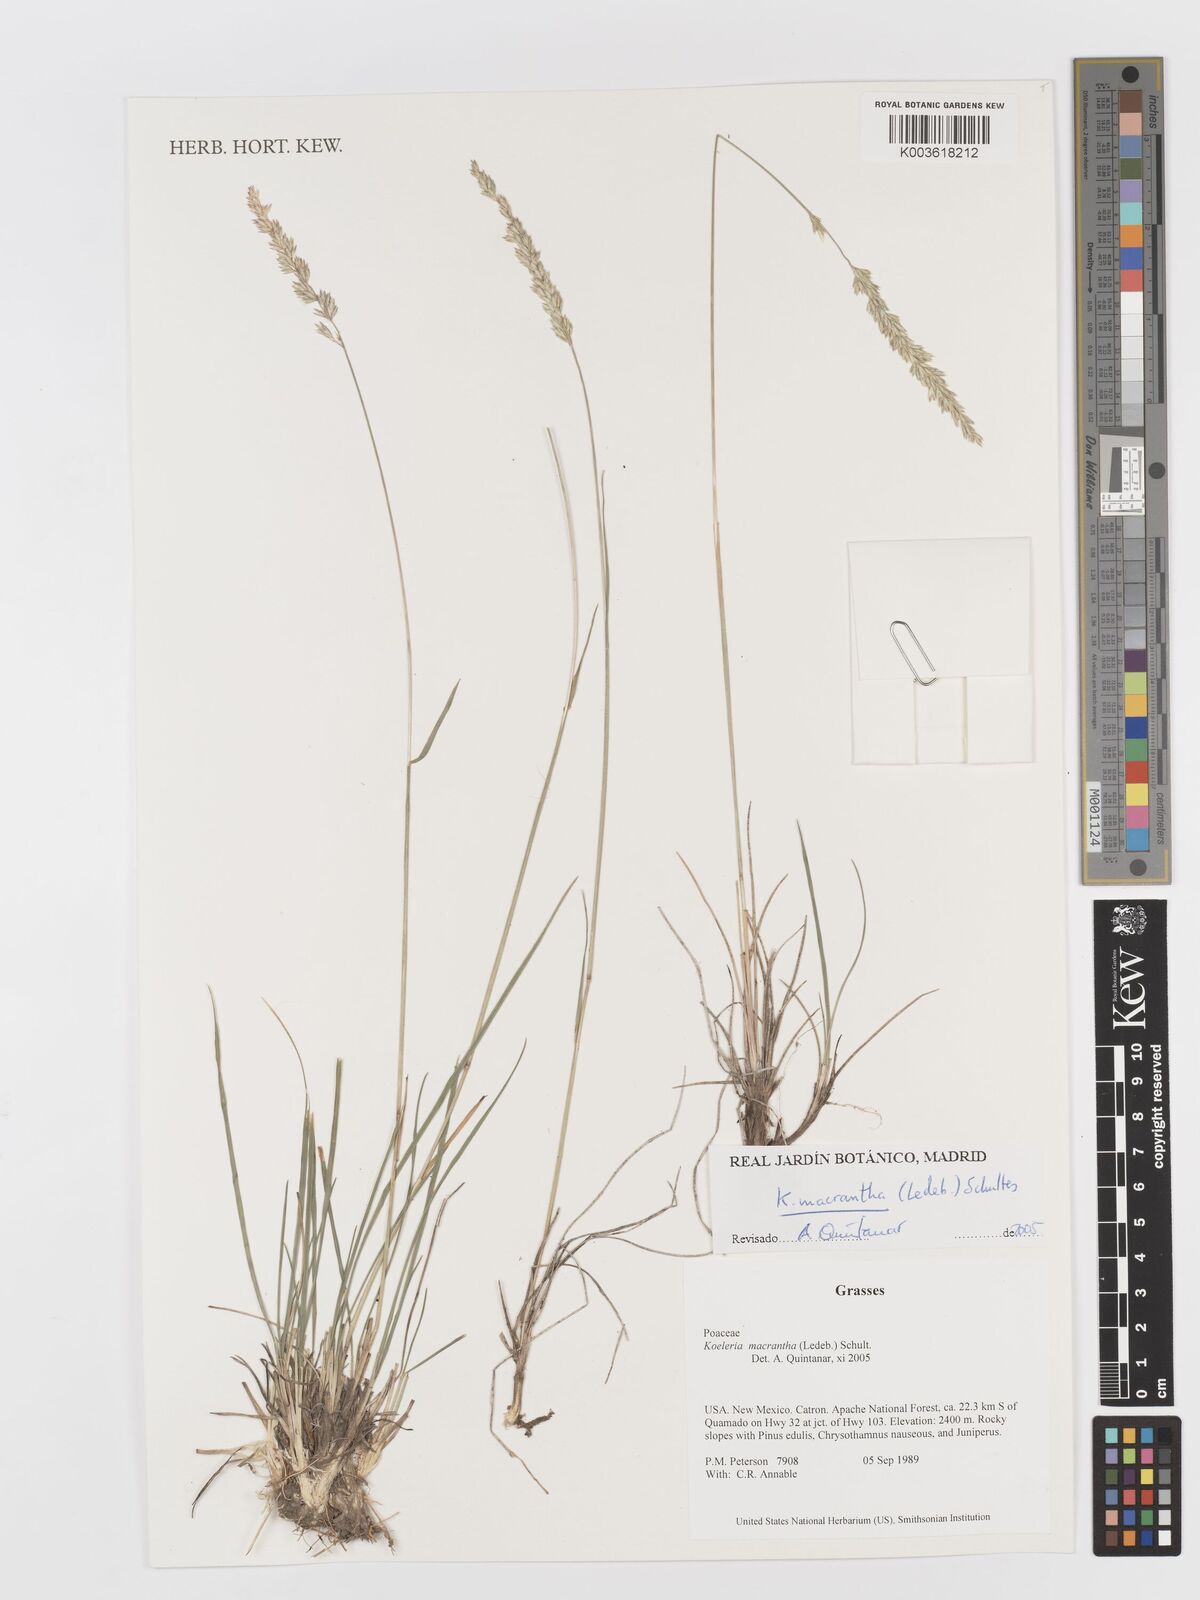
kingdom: Plantae
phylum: Tracheophyta
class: Liliopsida
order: Poales
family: Poaceae
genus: Koeleria
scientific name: Koeleria macrantha
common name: Crested hair-grass
